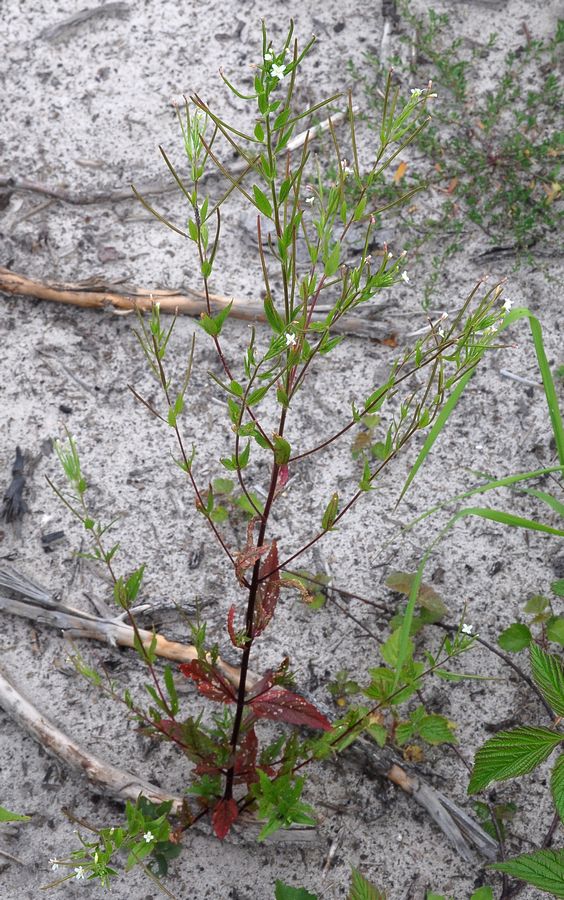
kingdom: Plantae
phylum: Tracheophyta
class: Magnoliopsida
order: Myrtales
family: Onagraceae
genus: Epilobium
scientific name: Epilobium pseudorubescens
